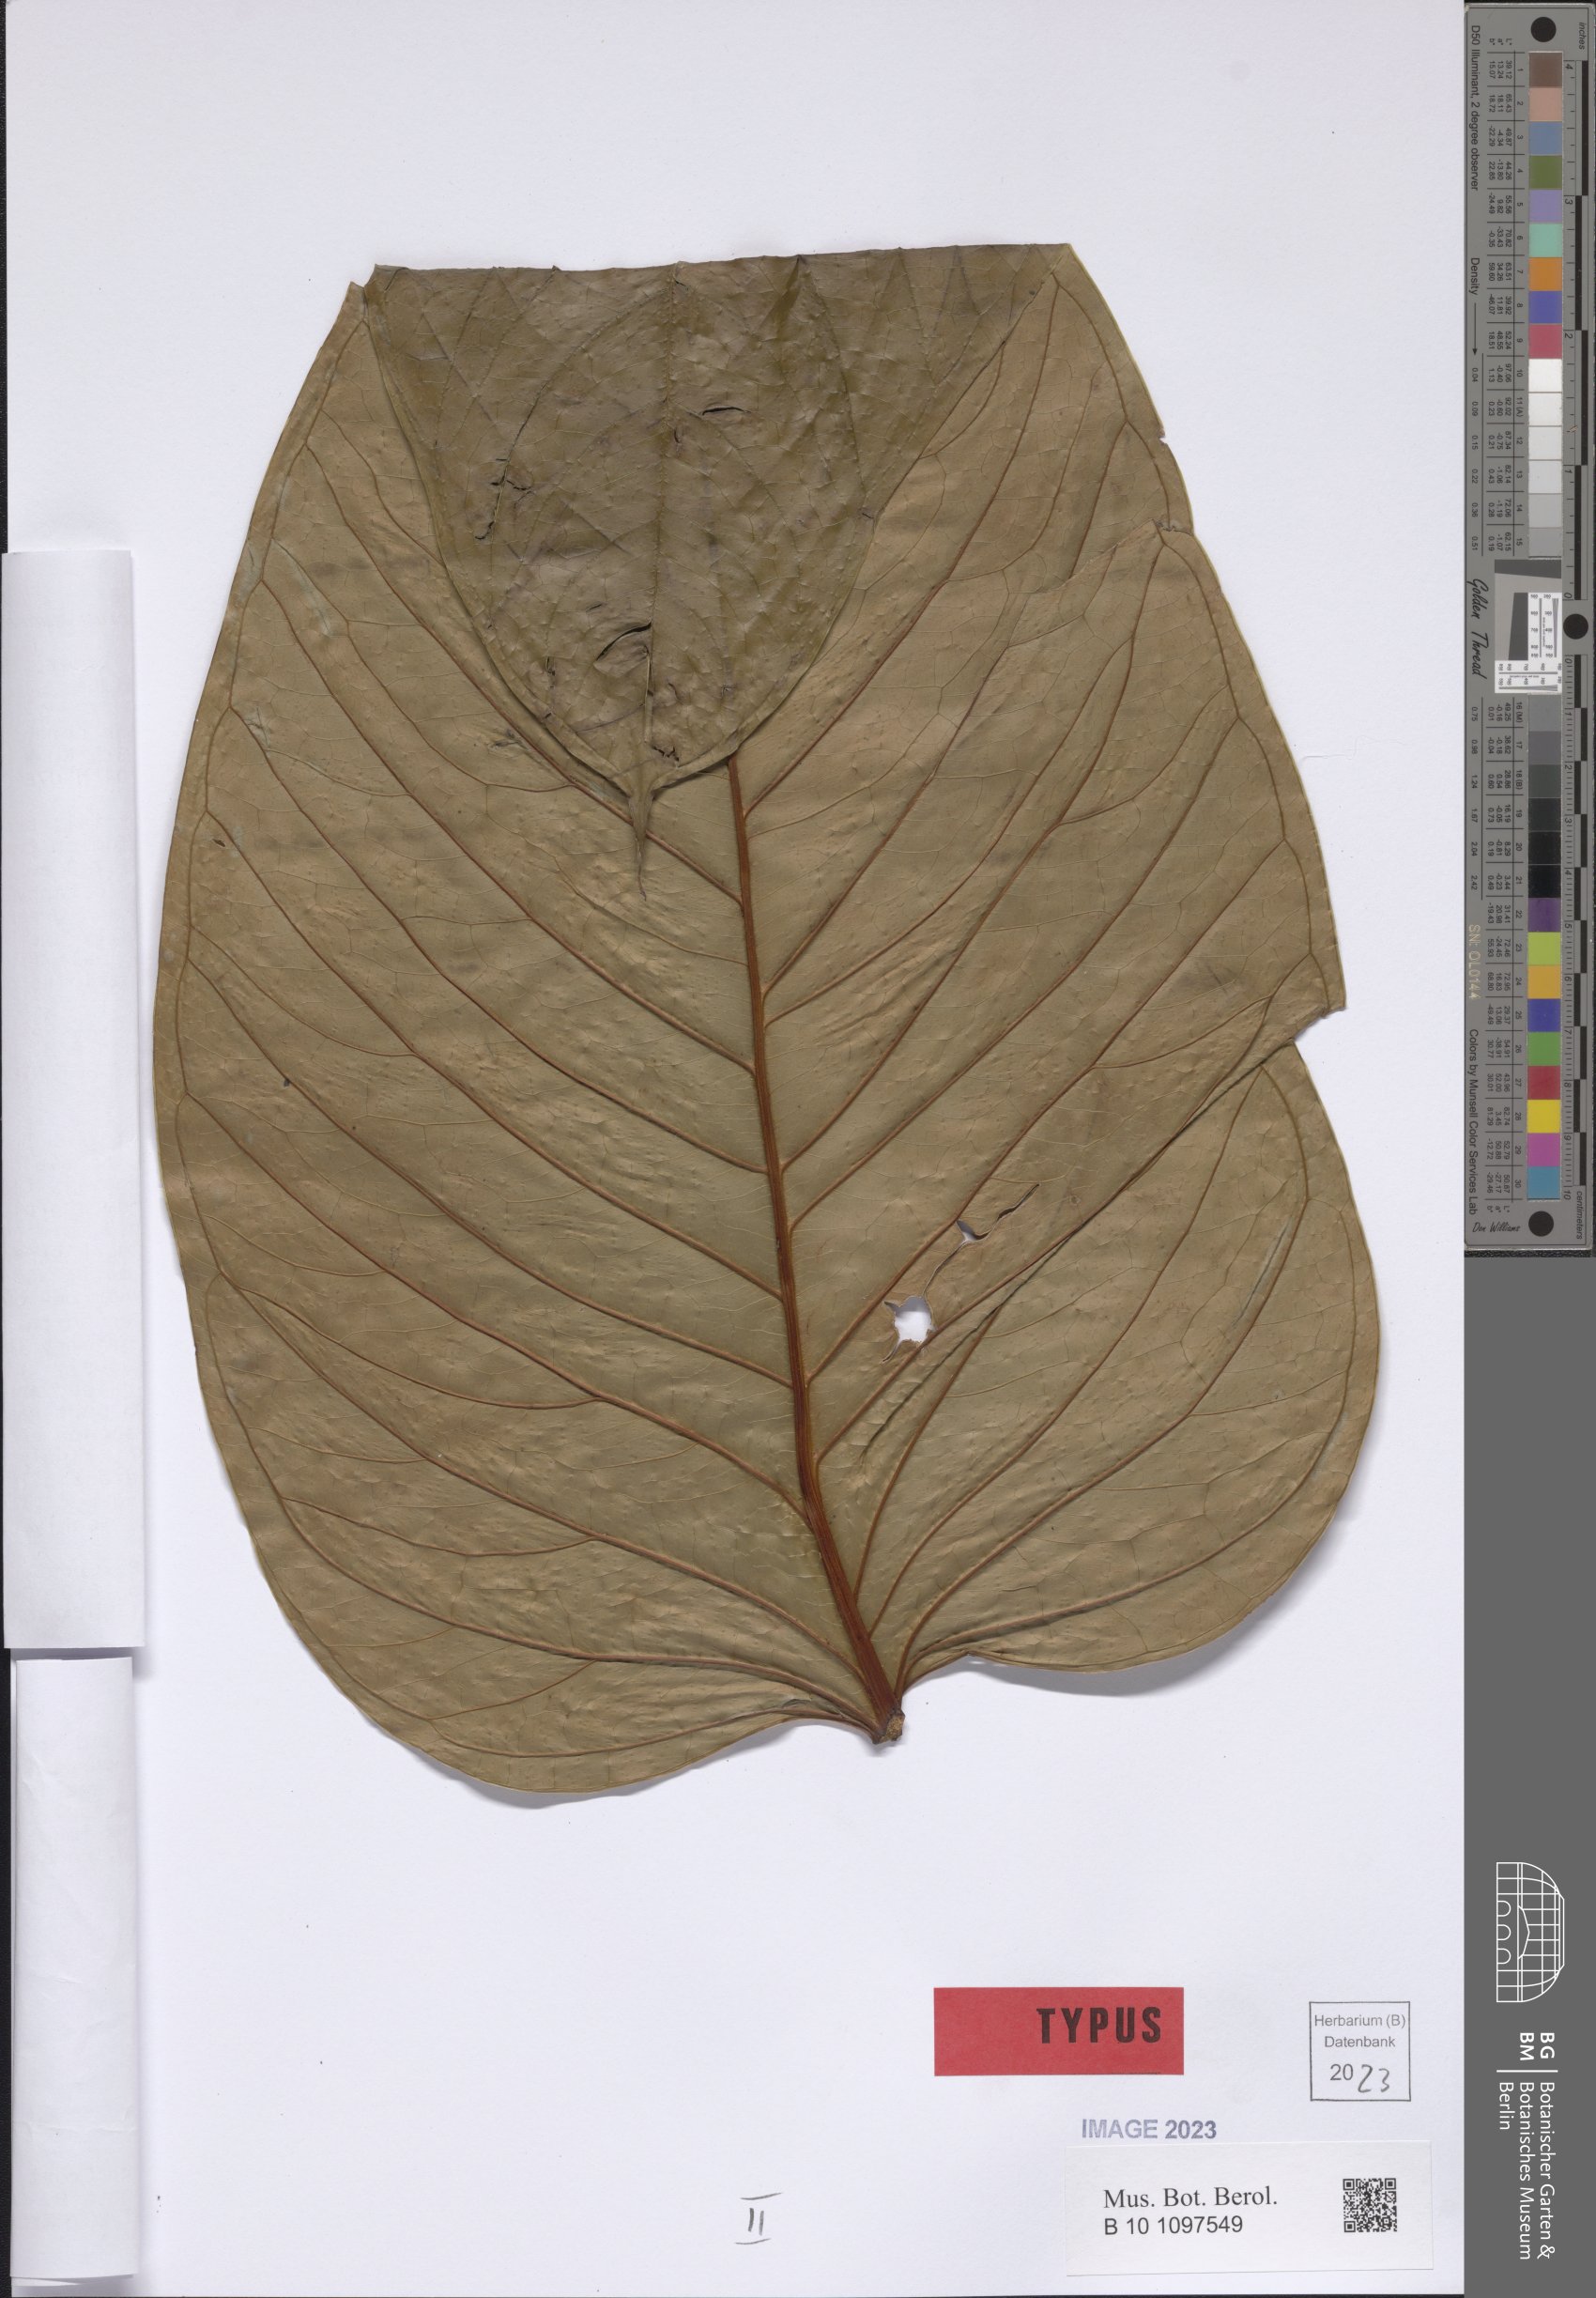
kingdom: Plantae
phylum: Tracheophyta
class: Liliopsida
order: Alismatales
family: Araceae
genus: Anthurium
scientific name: Anthurium mansellii
